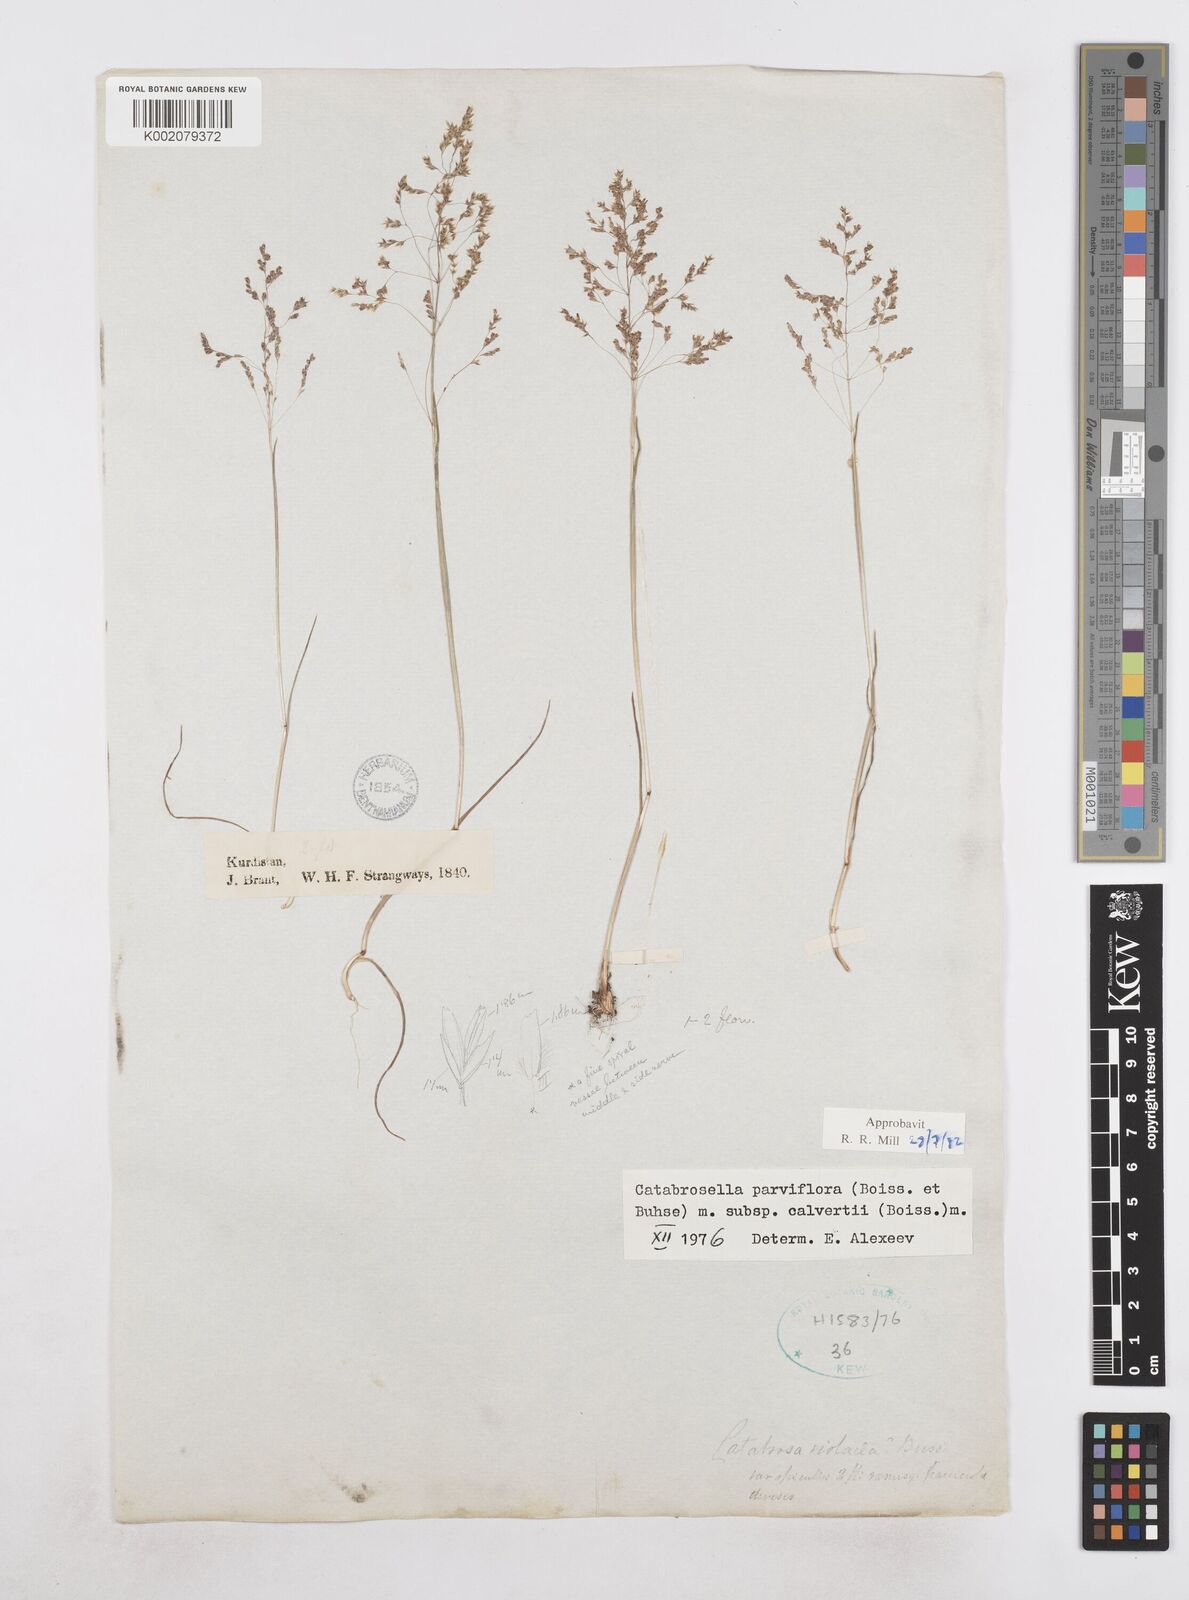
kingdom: Plantae
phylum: Tracheophyta
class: Liliopsida
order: Poales
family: Poaceae
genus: Catabrosella
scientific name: Catabrosella humilis
